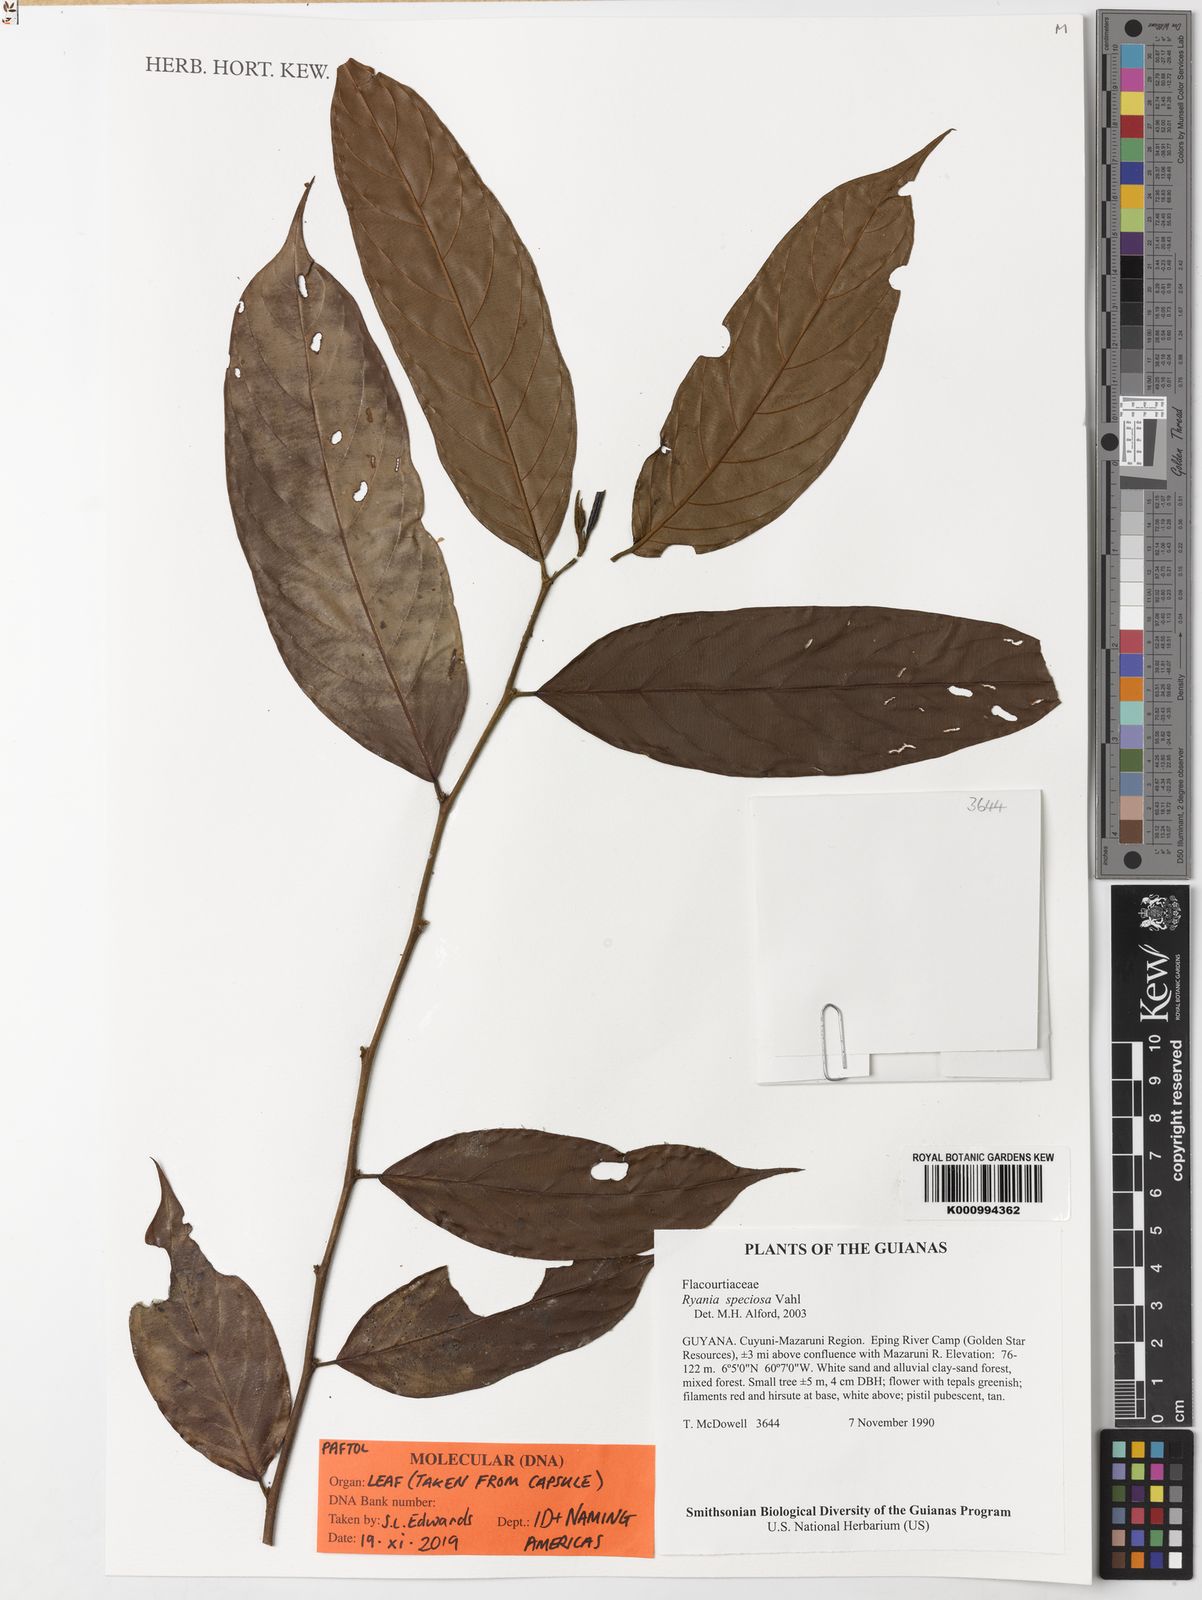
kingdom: Plantae
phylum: Tracheophyta
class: Magnoliopsida
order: Malpighiales
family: Salicaceae
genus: Ryania
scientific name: Ryania speciosa
